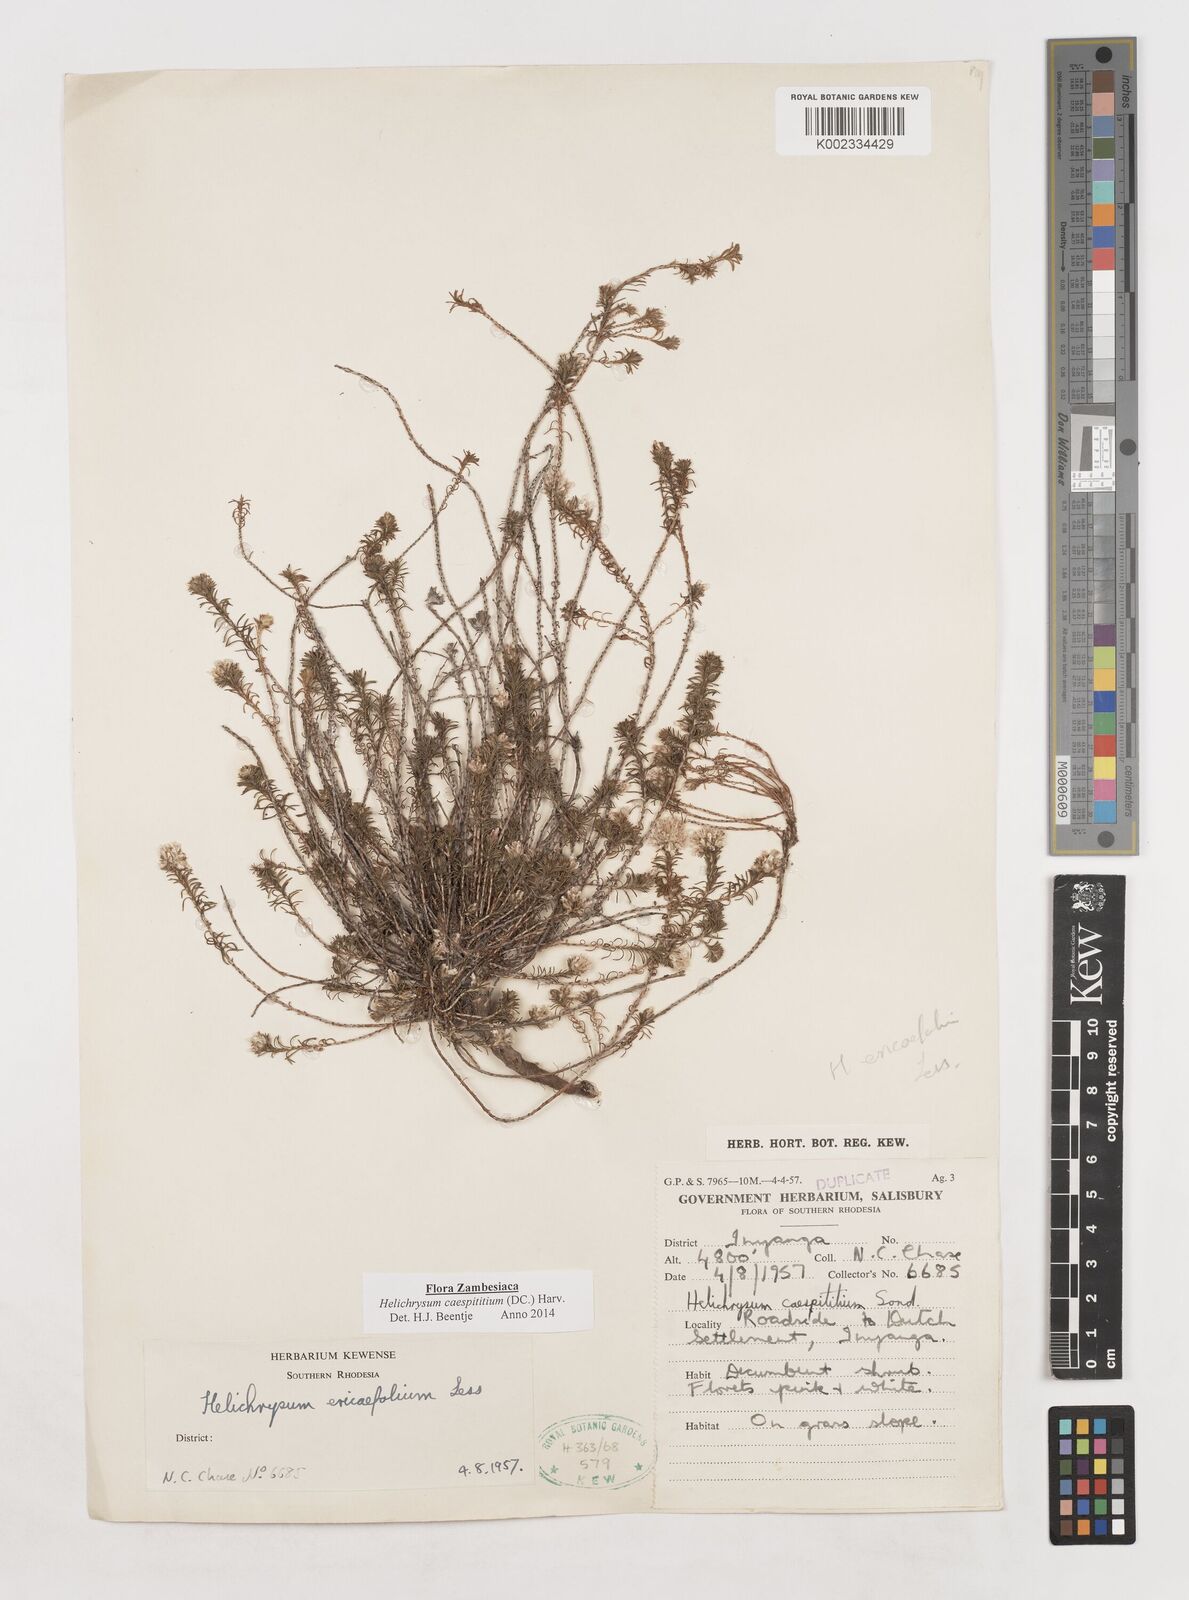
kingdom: Plantae
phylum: Tracheophyta
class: Magnoliopsida
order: Asterales
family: Asteraceae
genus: Helichrysum
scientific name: Helichrysum caespititium
